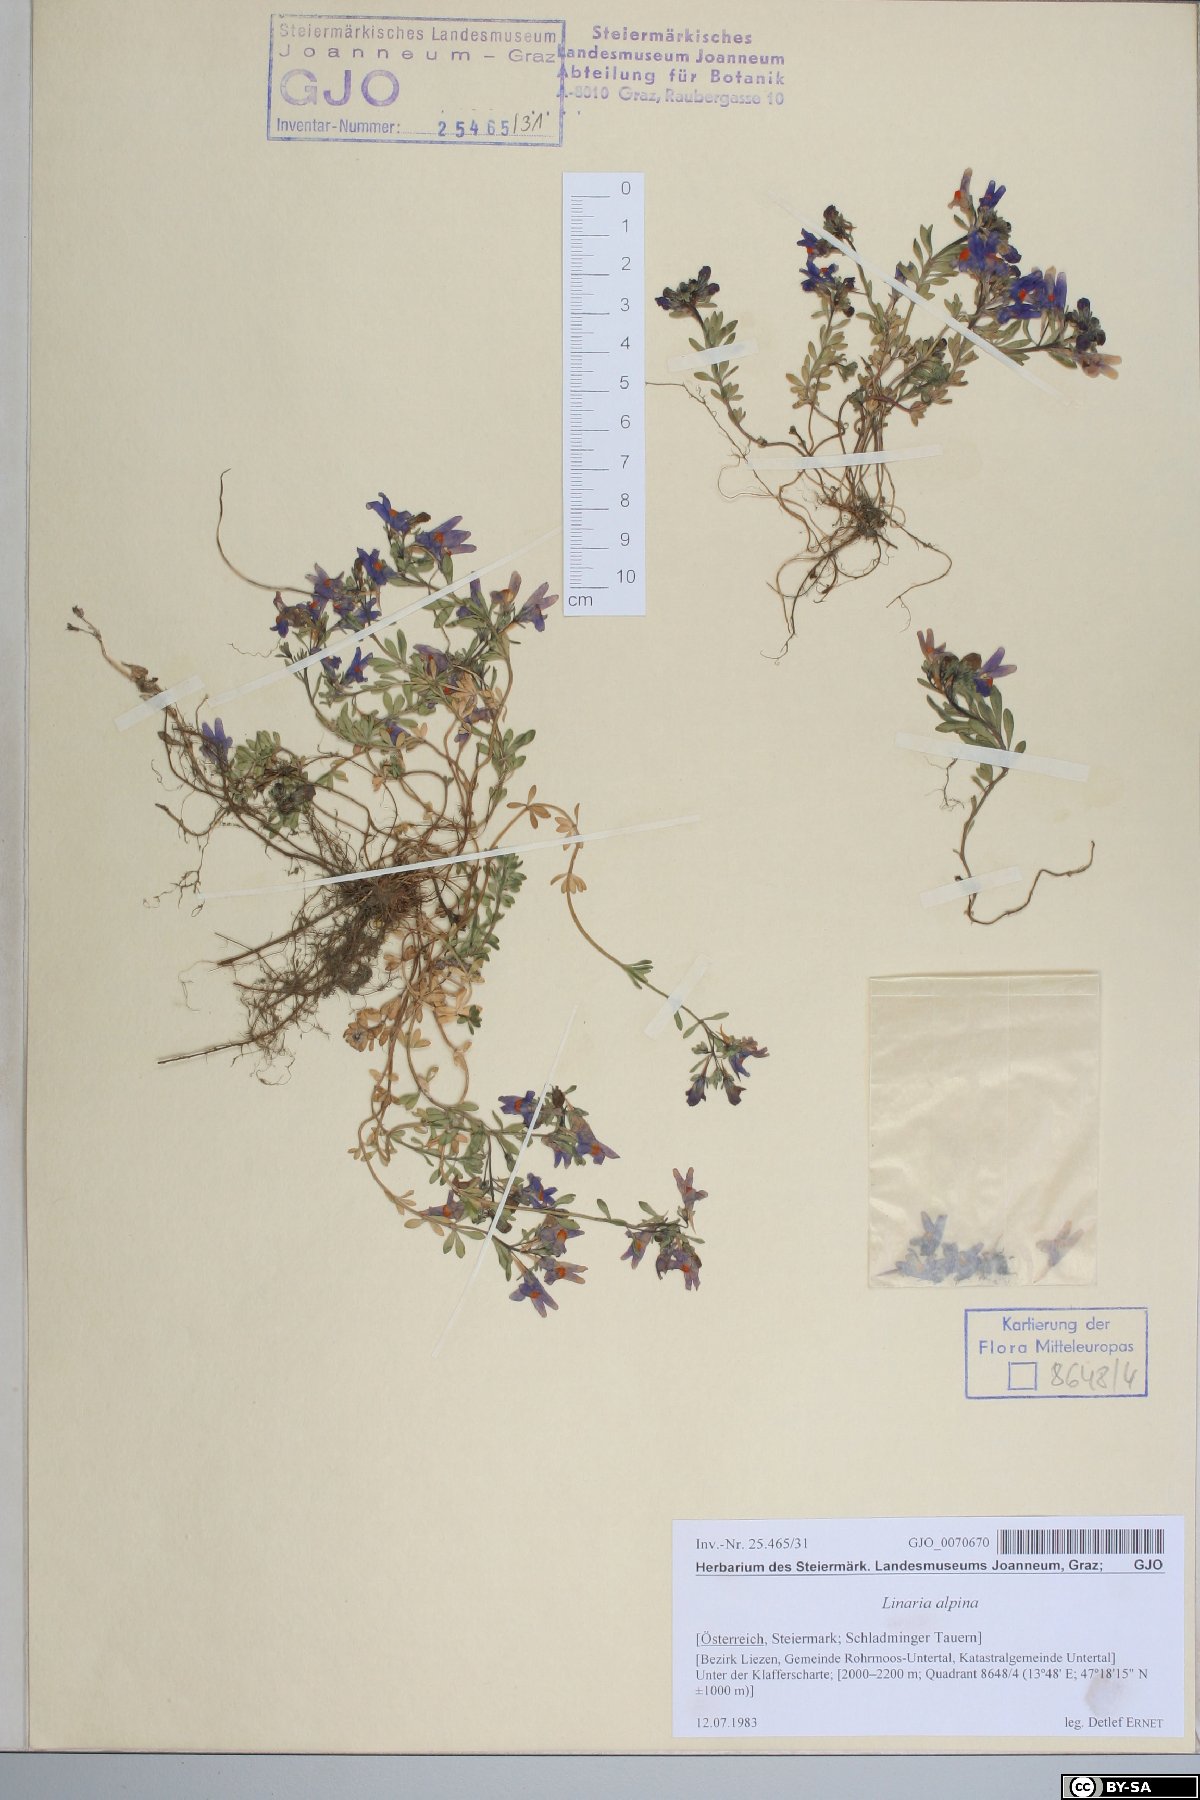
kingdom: Plantae
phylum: Tracheophyta
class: Magnoliopsida
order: Lamiales
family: Plantaginaceae
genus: Linaria
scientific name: Linaria alpina
